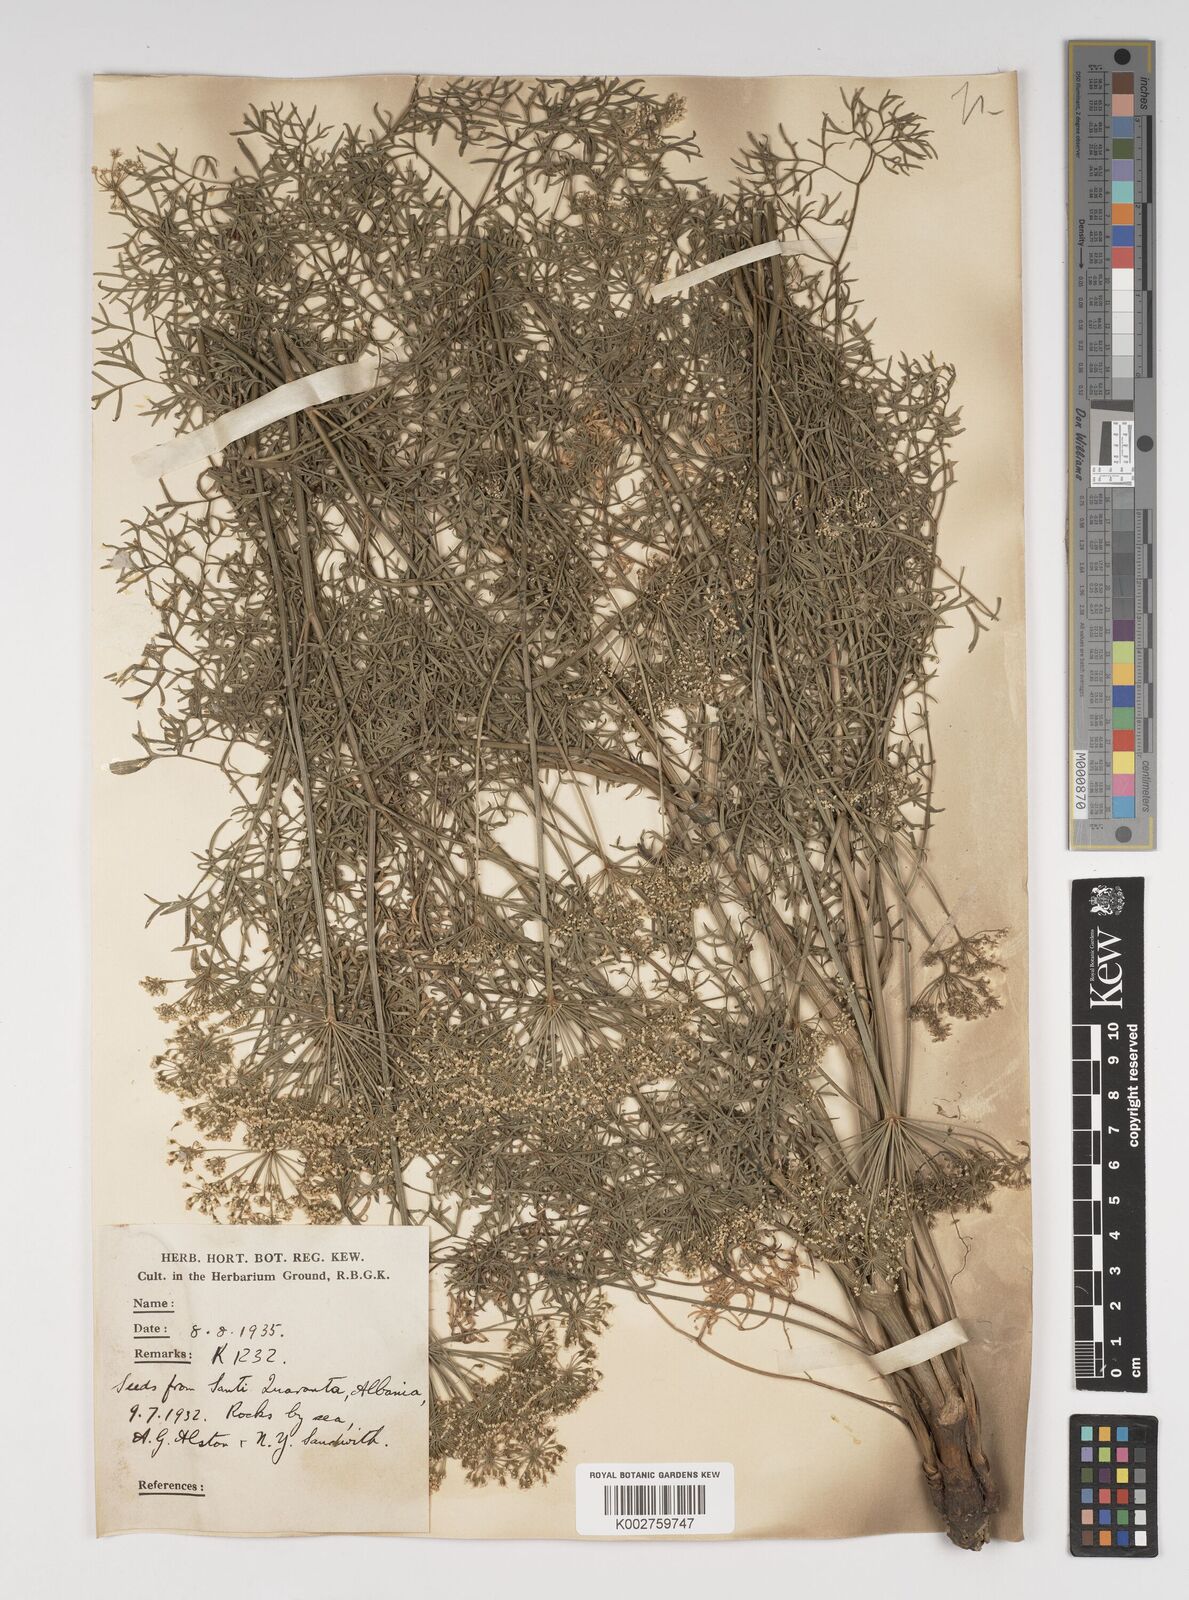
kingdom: Plantae
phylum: Tracheophyta
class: Magnoliopsida
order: Apiales
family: Apiaceae
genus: Katapsuxis
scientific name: Katapsuxis silaifolia
